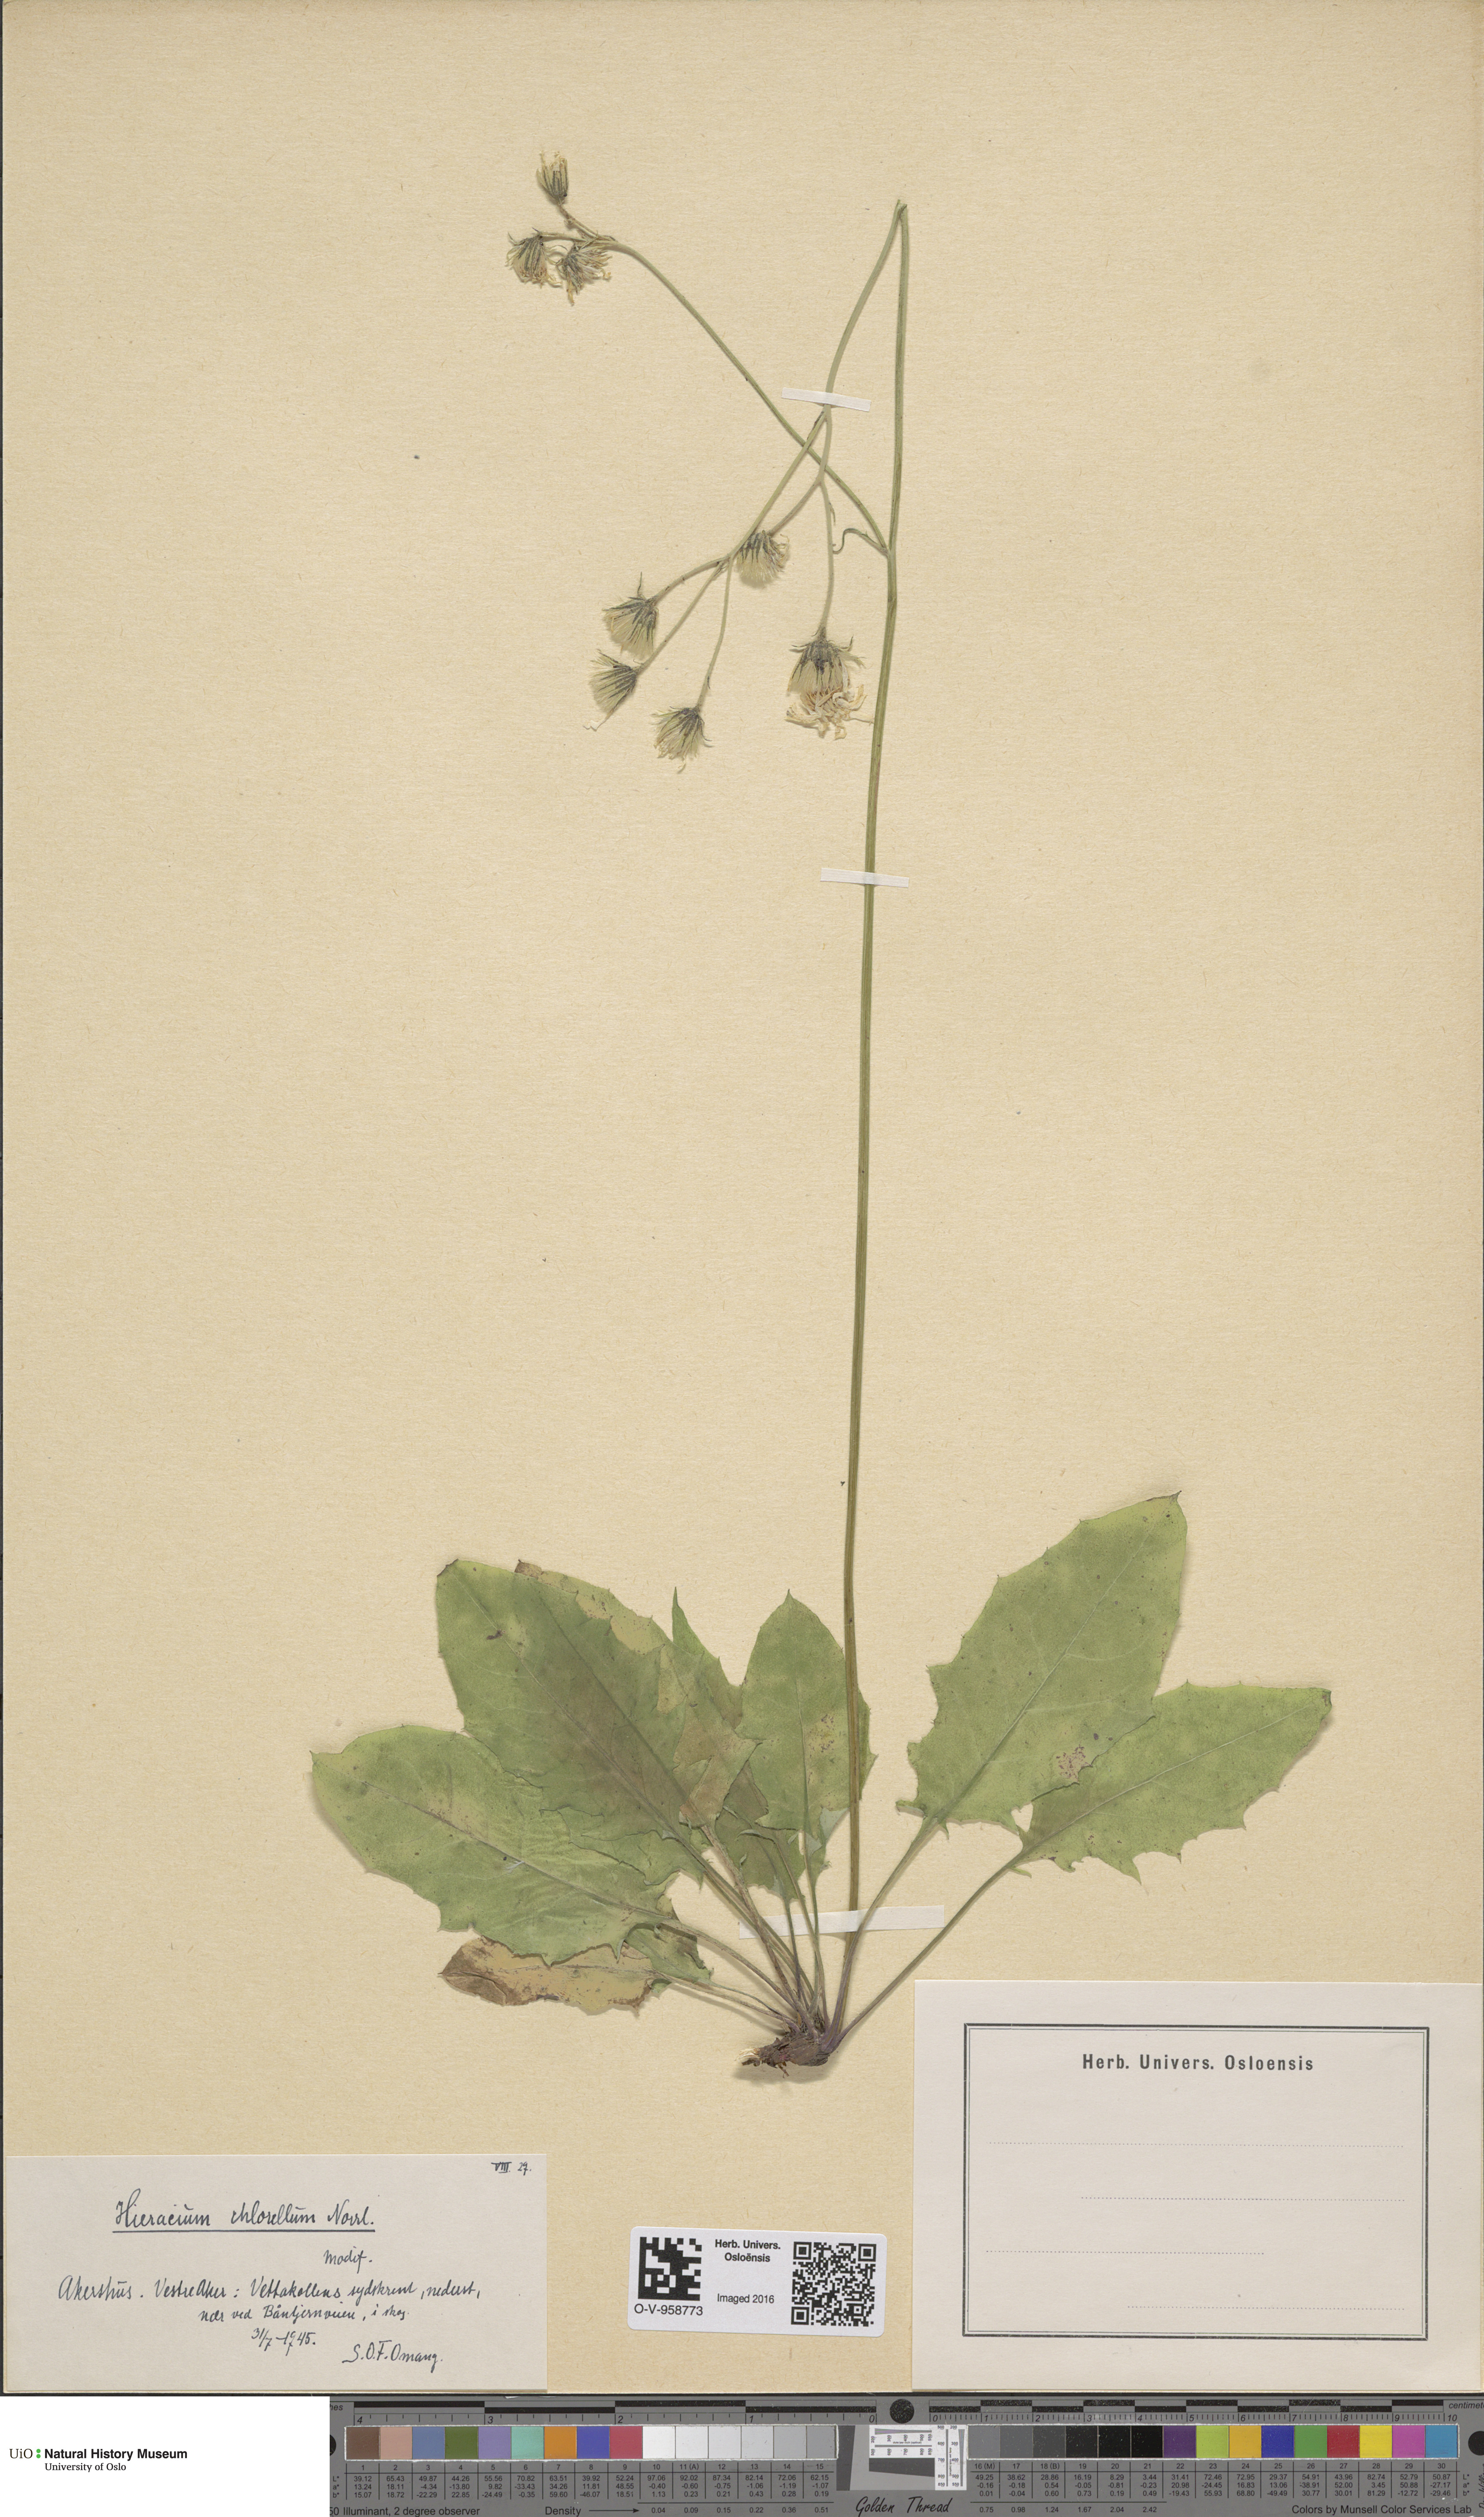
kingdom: Plantae
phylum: Tracheophyta
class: Magnoliopsida
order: Asterales
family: Asteraceae
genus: Hieracium
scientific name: Hieracium chlorellum
